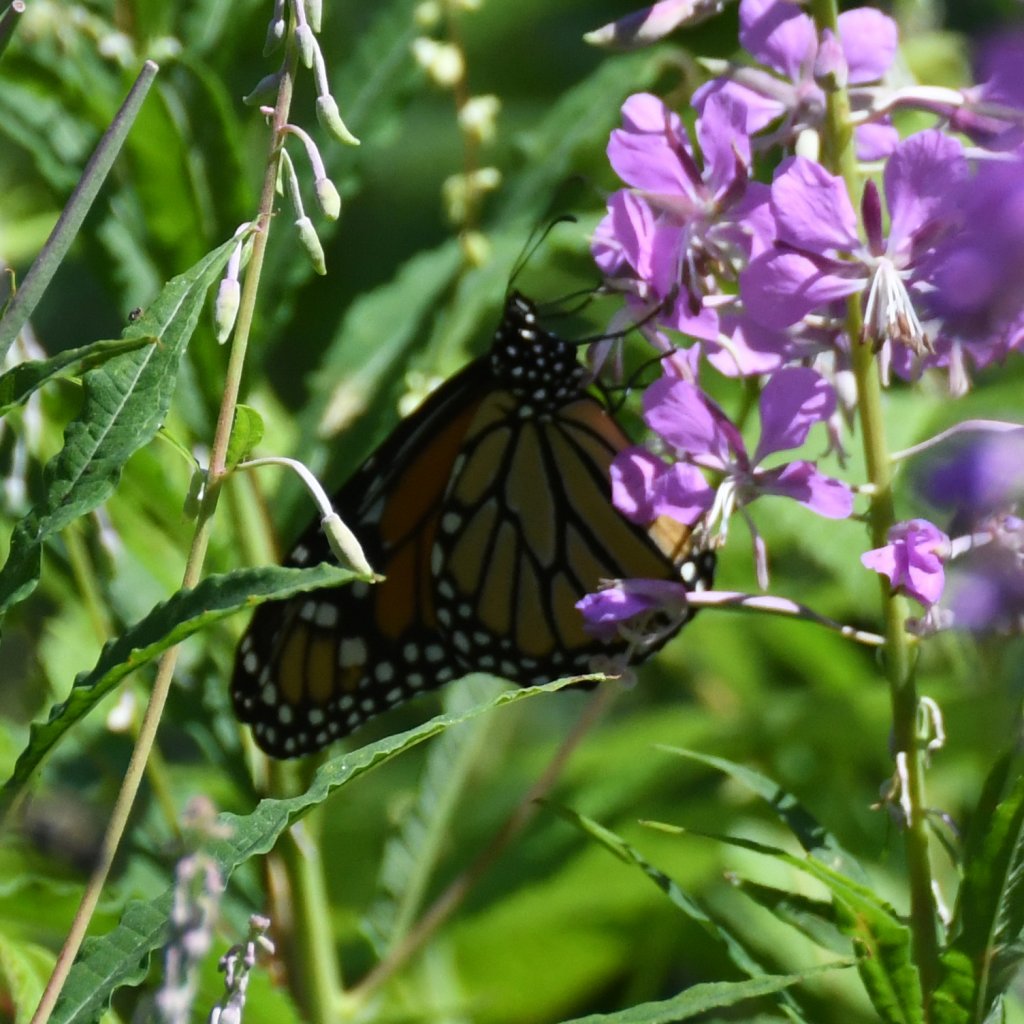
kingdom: Animalia
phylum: Arthropoda
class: Insecta
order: Lepidoptera
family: Nymphalidae
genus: Danaus
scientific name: Danaus plexippus
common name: Monarch
